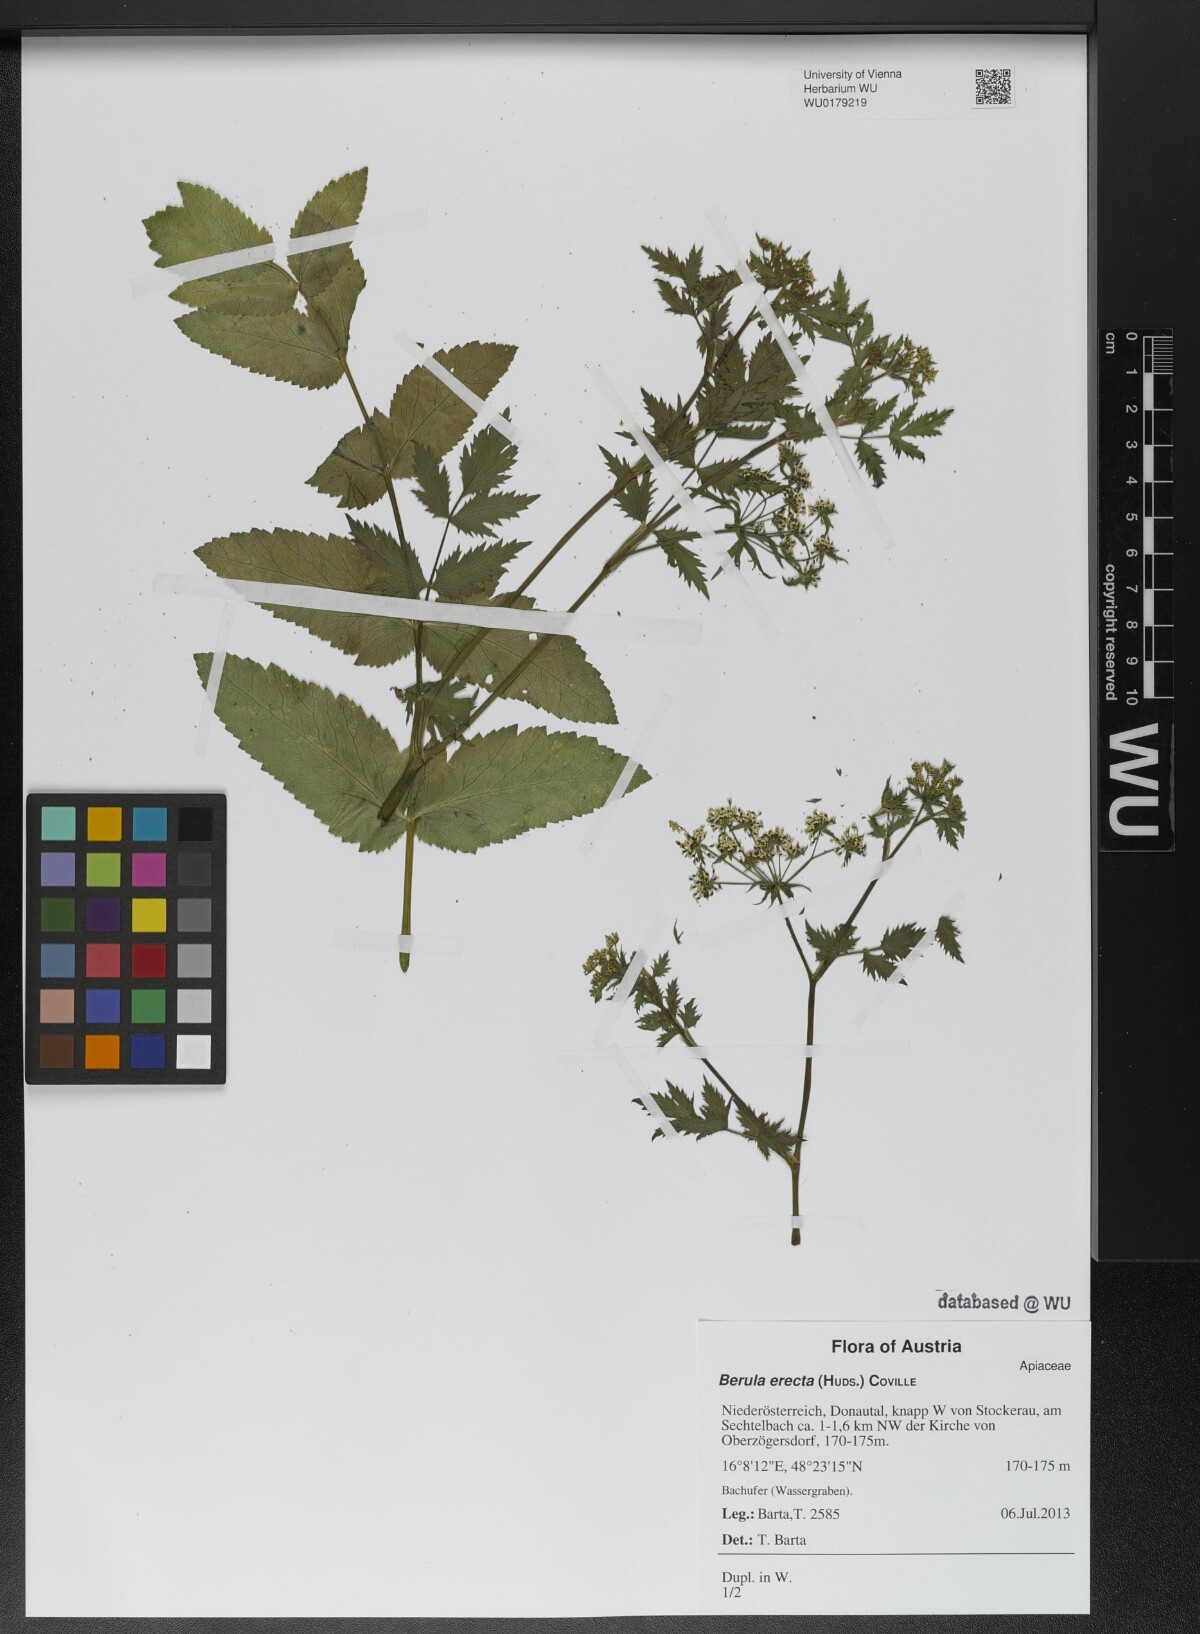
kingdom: Plantae
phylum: Tracheophyta
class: Magnoliopsida
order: Apiales
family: Apiaceae
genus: Berula
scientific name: Berula erecta
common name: Lesser water-parsnip
